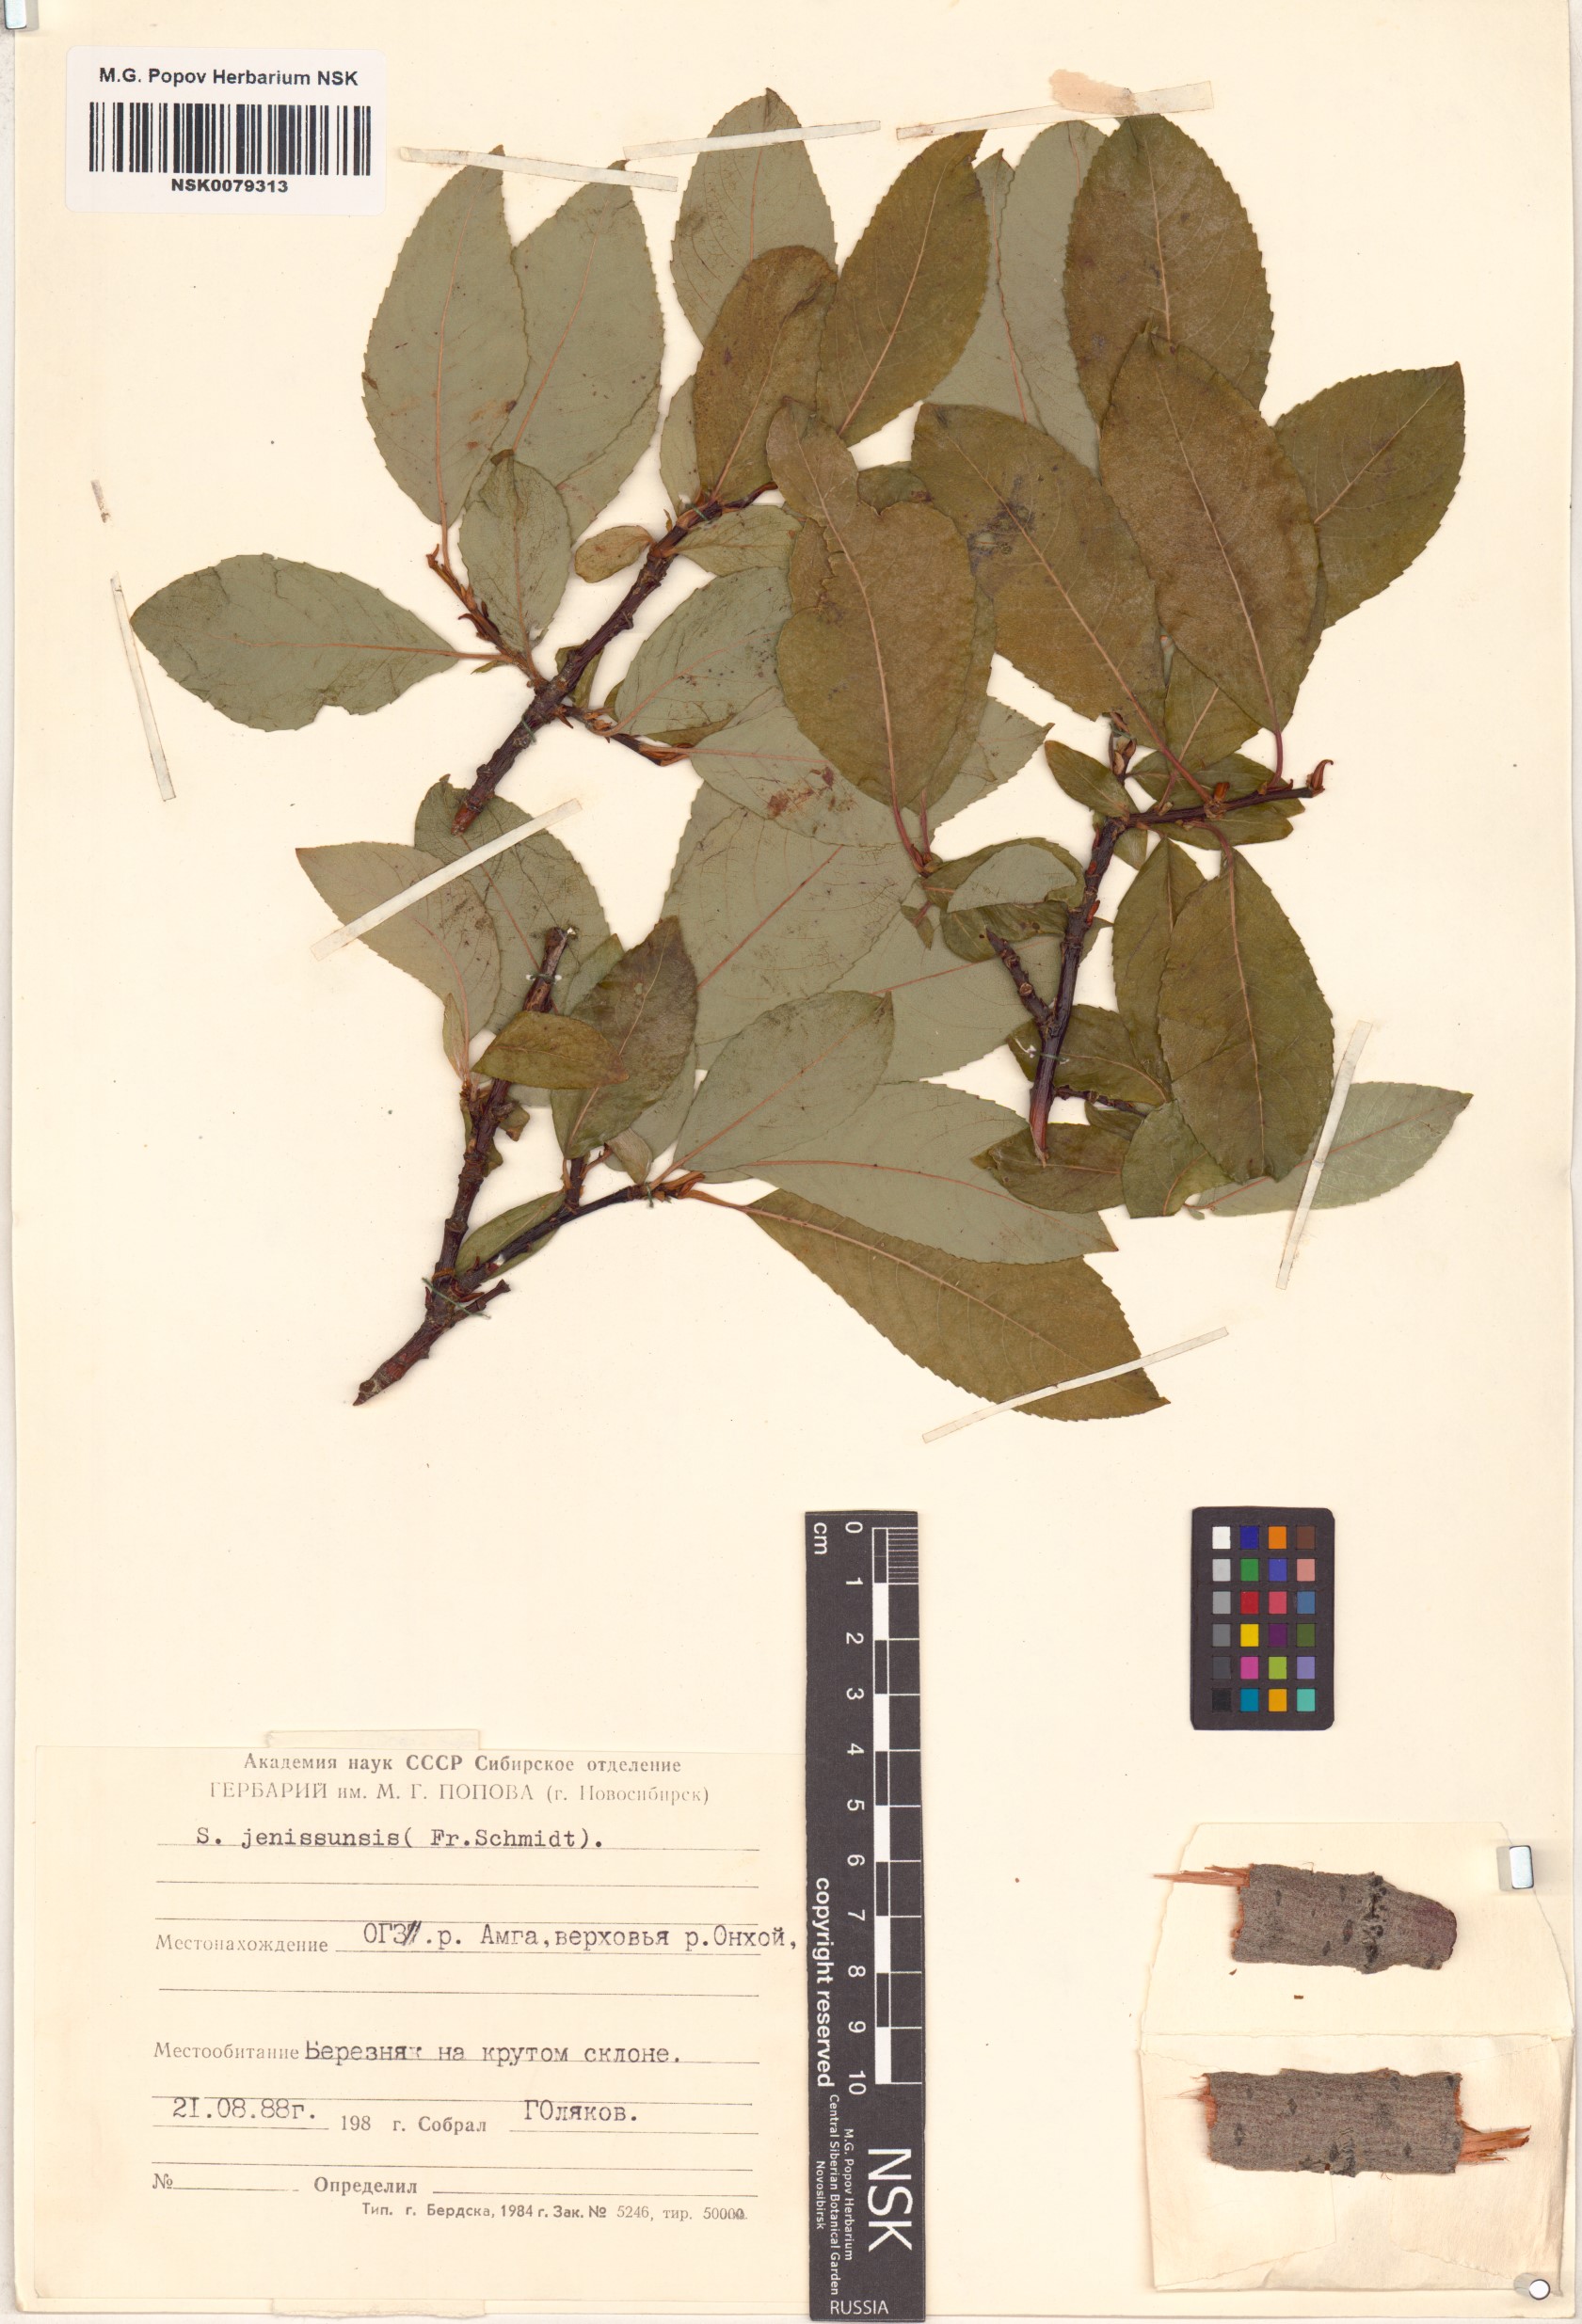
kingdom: Plantae
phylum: Tracheophyta
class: Magnoliopsida
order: Malpighiales
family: Salicaceae
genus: Salix
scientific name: Salix jenisseensis
